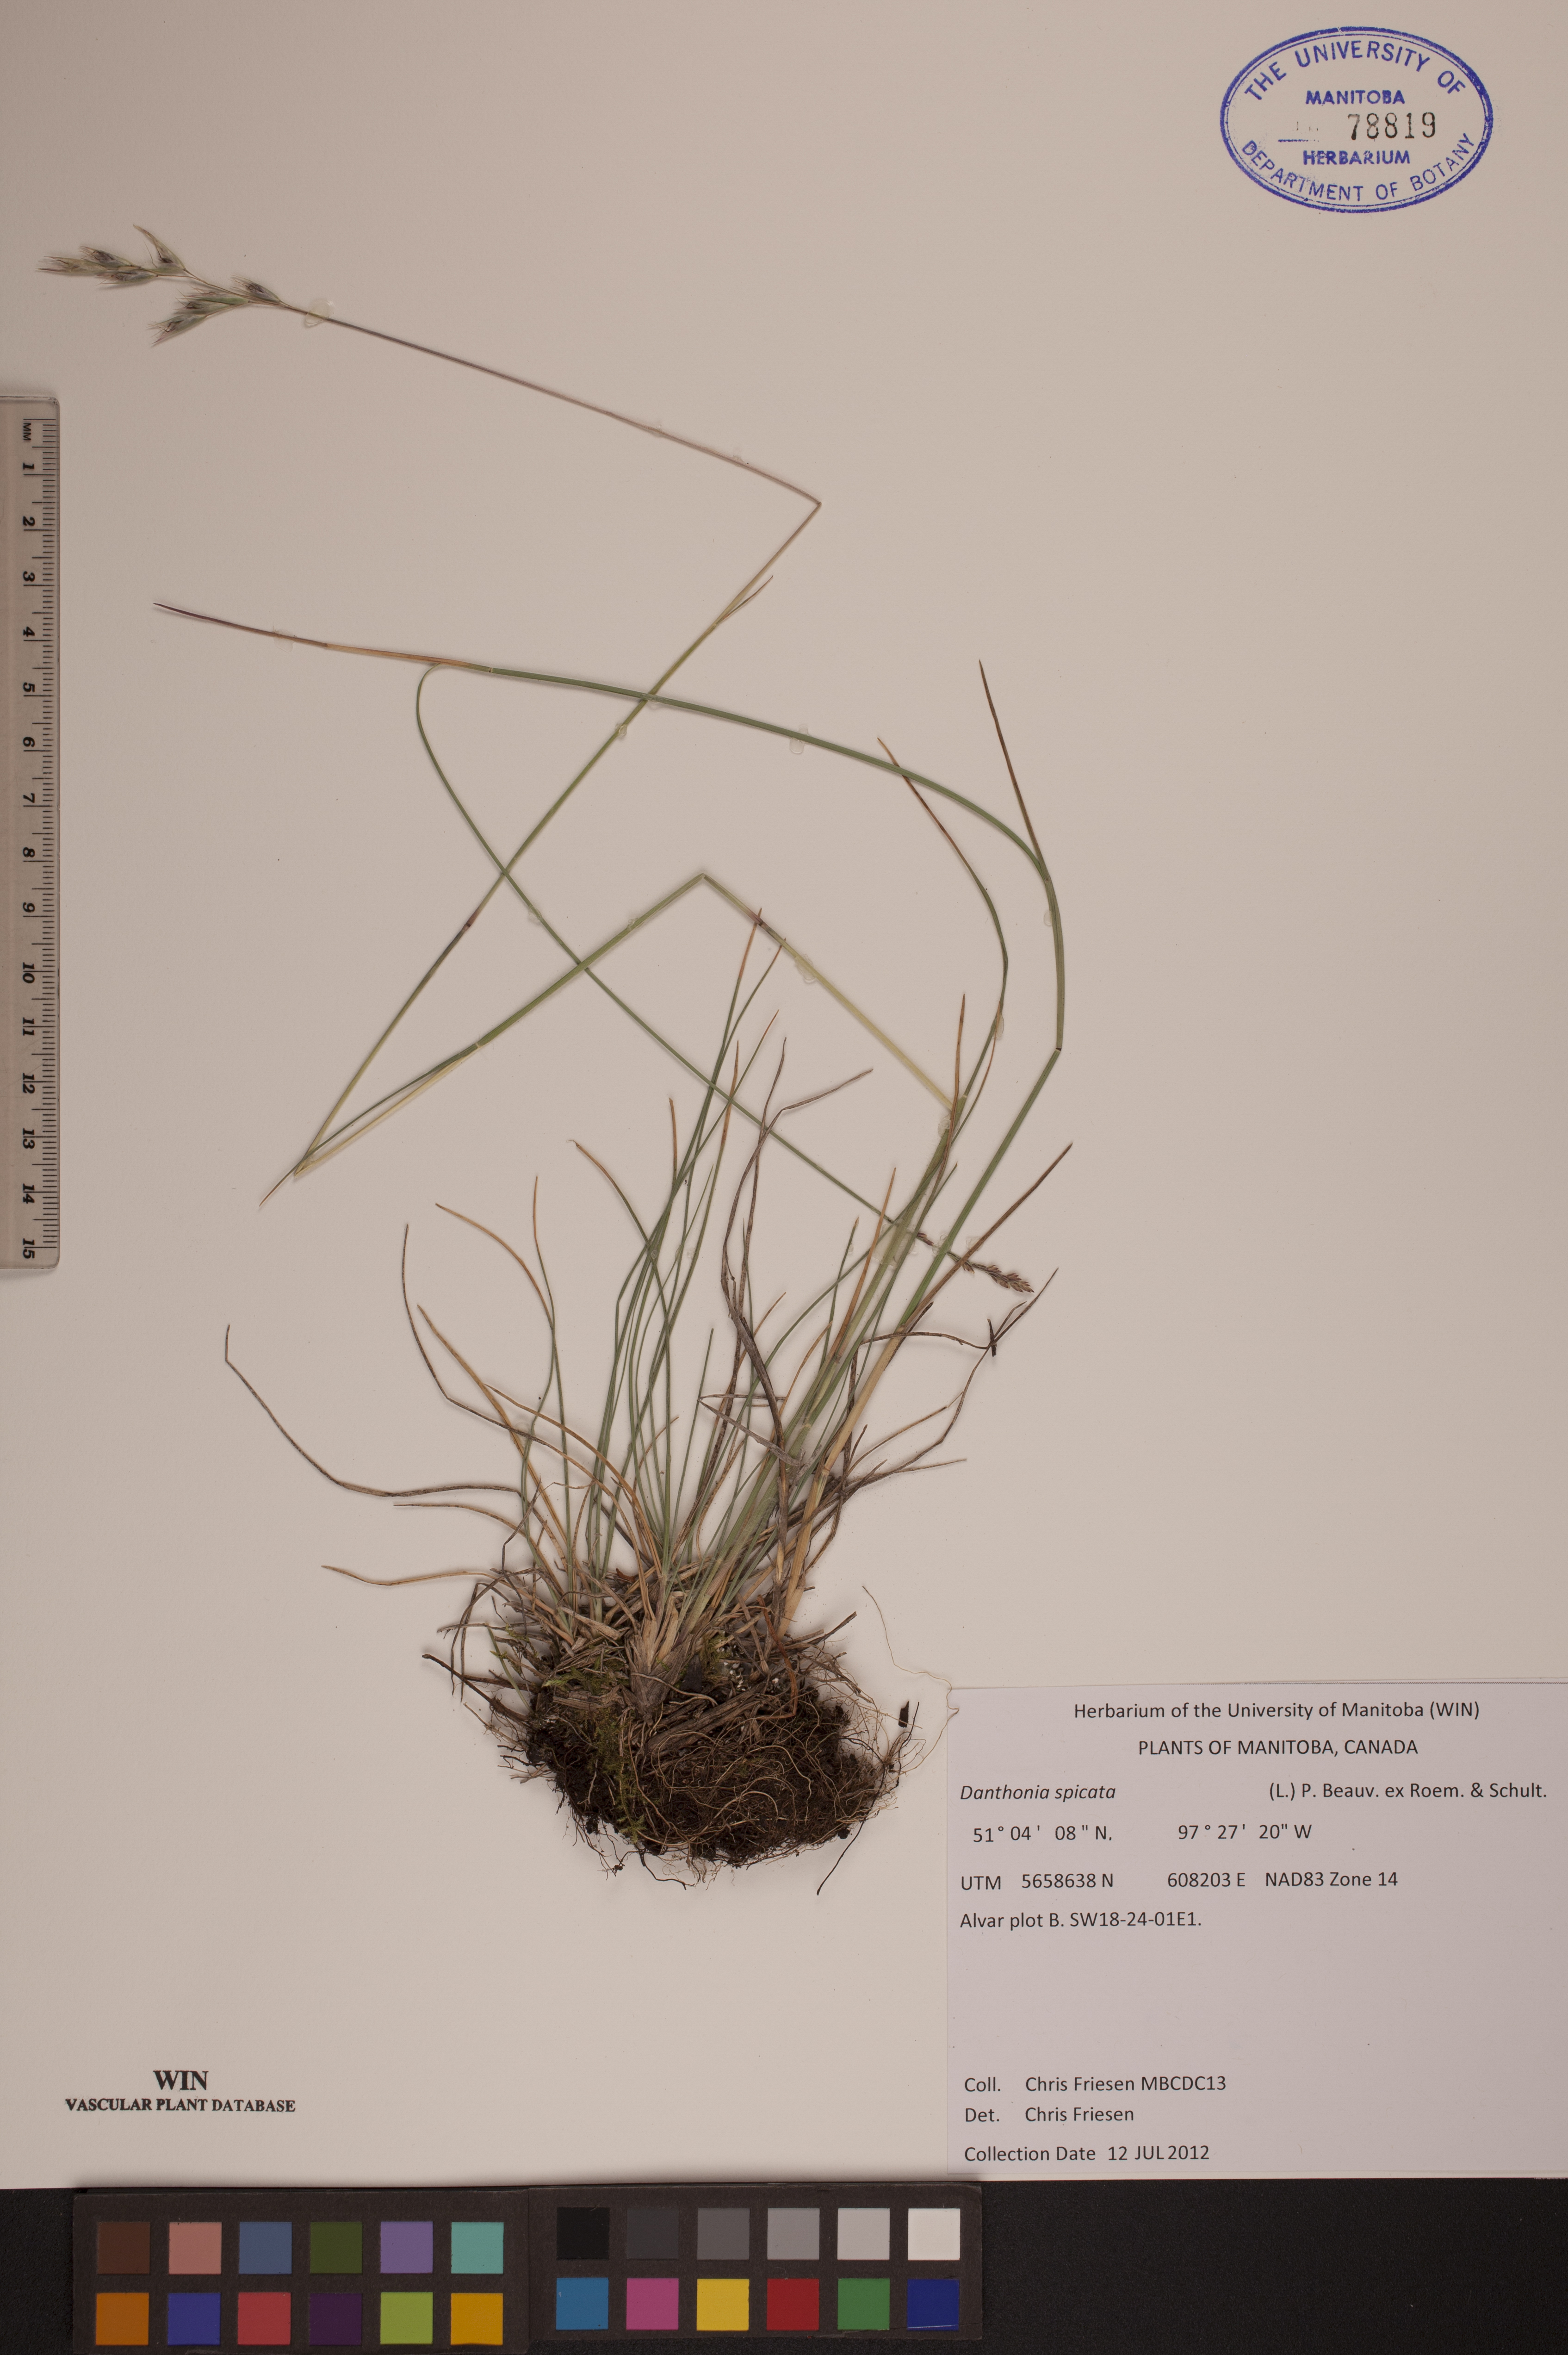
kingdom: Plantae
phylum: Tracheophyta
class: Liliopsida
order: Poales
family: Poaceae
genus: Danthonia
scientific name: Danthonia spicata
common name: Common wild oatgrass
